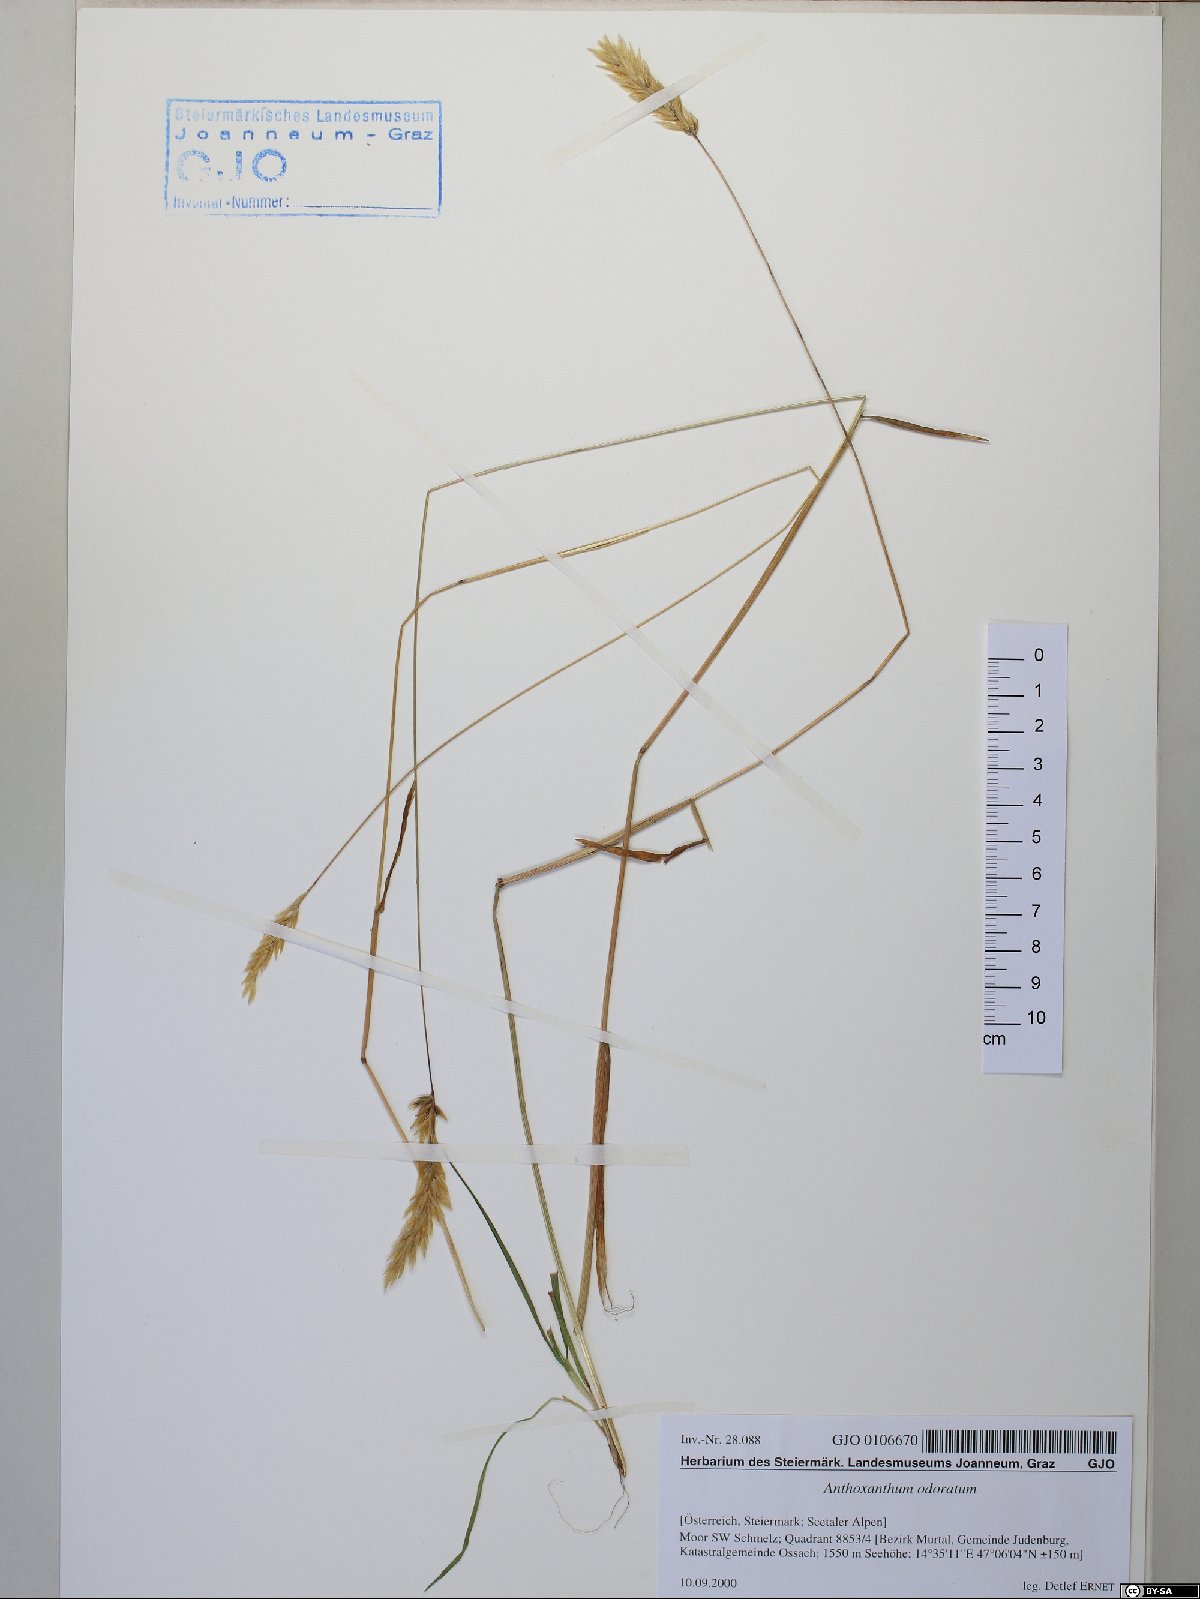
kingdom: Plantae
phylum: Tracheophyta
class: Liliopsida
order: Poales
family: Poaceae
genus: Anthoxanthum
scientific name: Anthoxanthum odoratum
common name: Sweet vernalgrass
